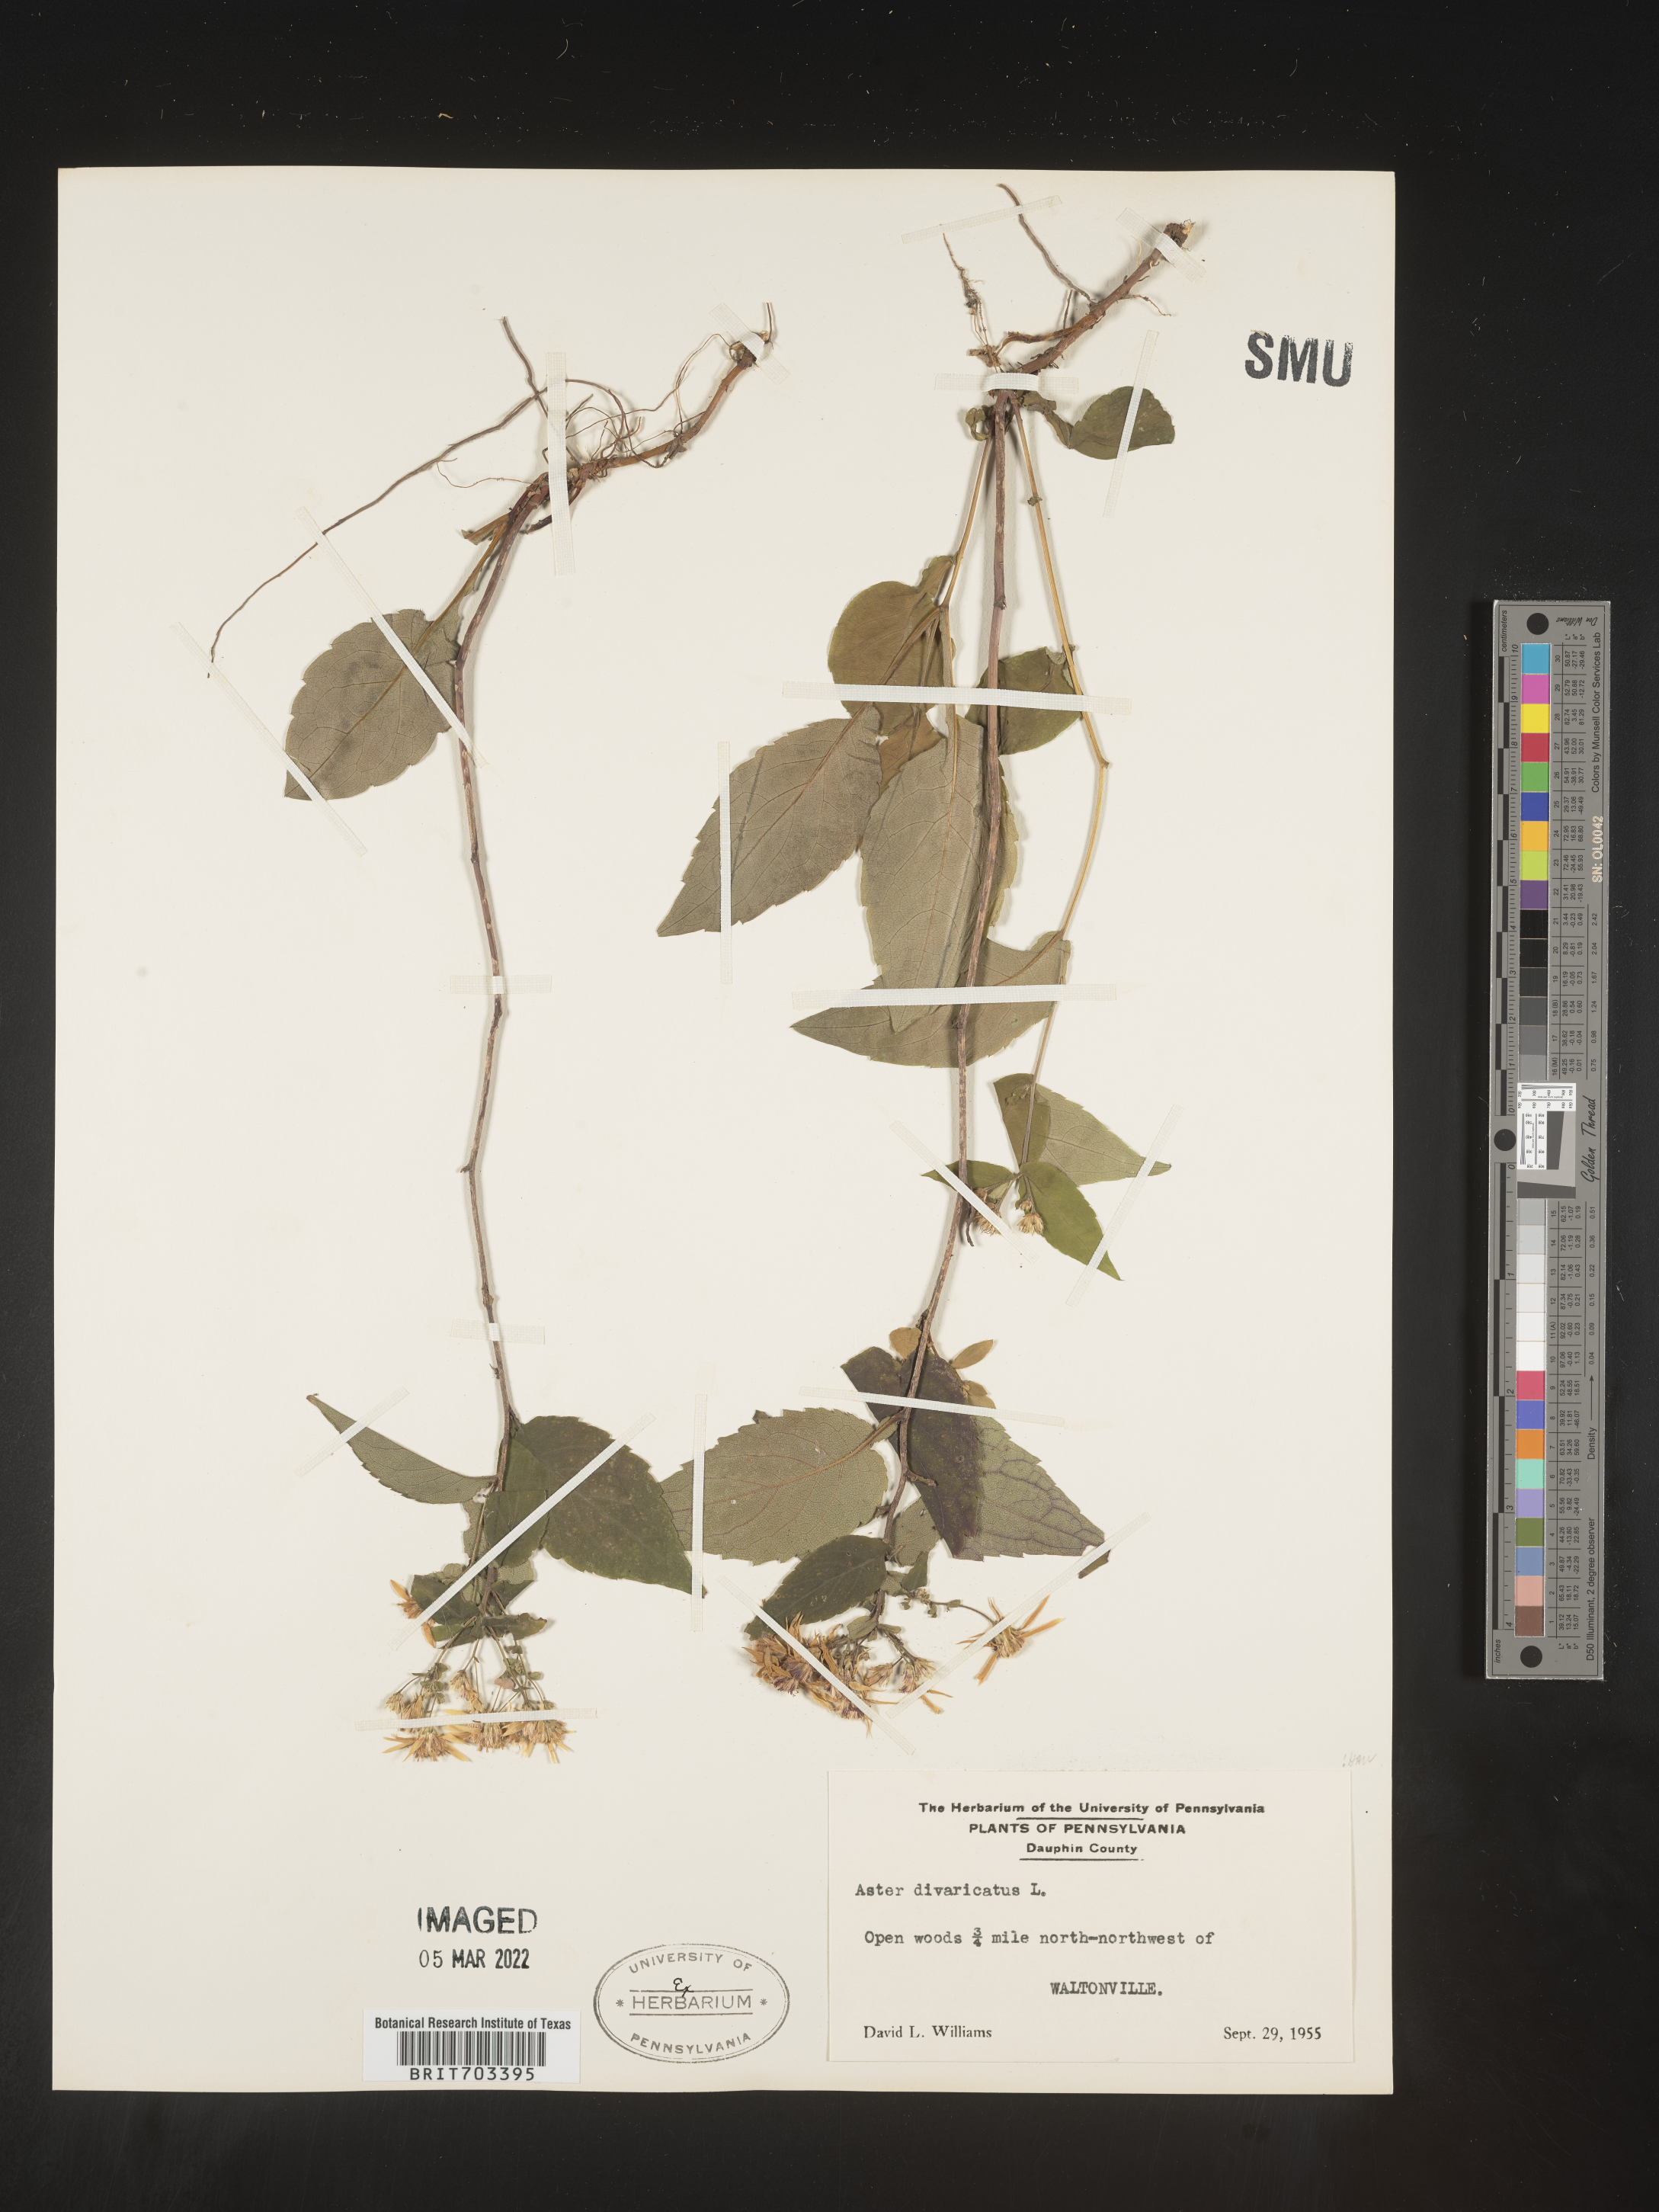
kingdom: Plantae
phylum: Tracheophyta
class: Magnoliopsida
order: Asterales
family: Asteraceae
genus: Eurybia
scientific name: Eurybia divaricata
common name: White wood aster
